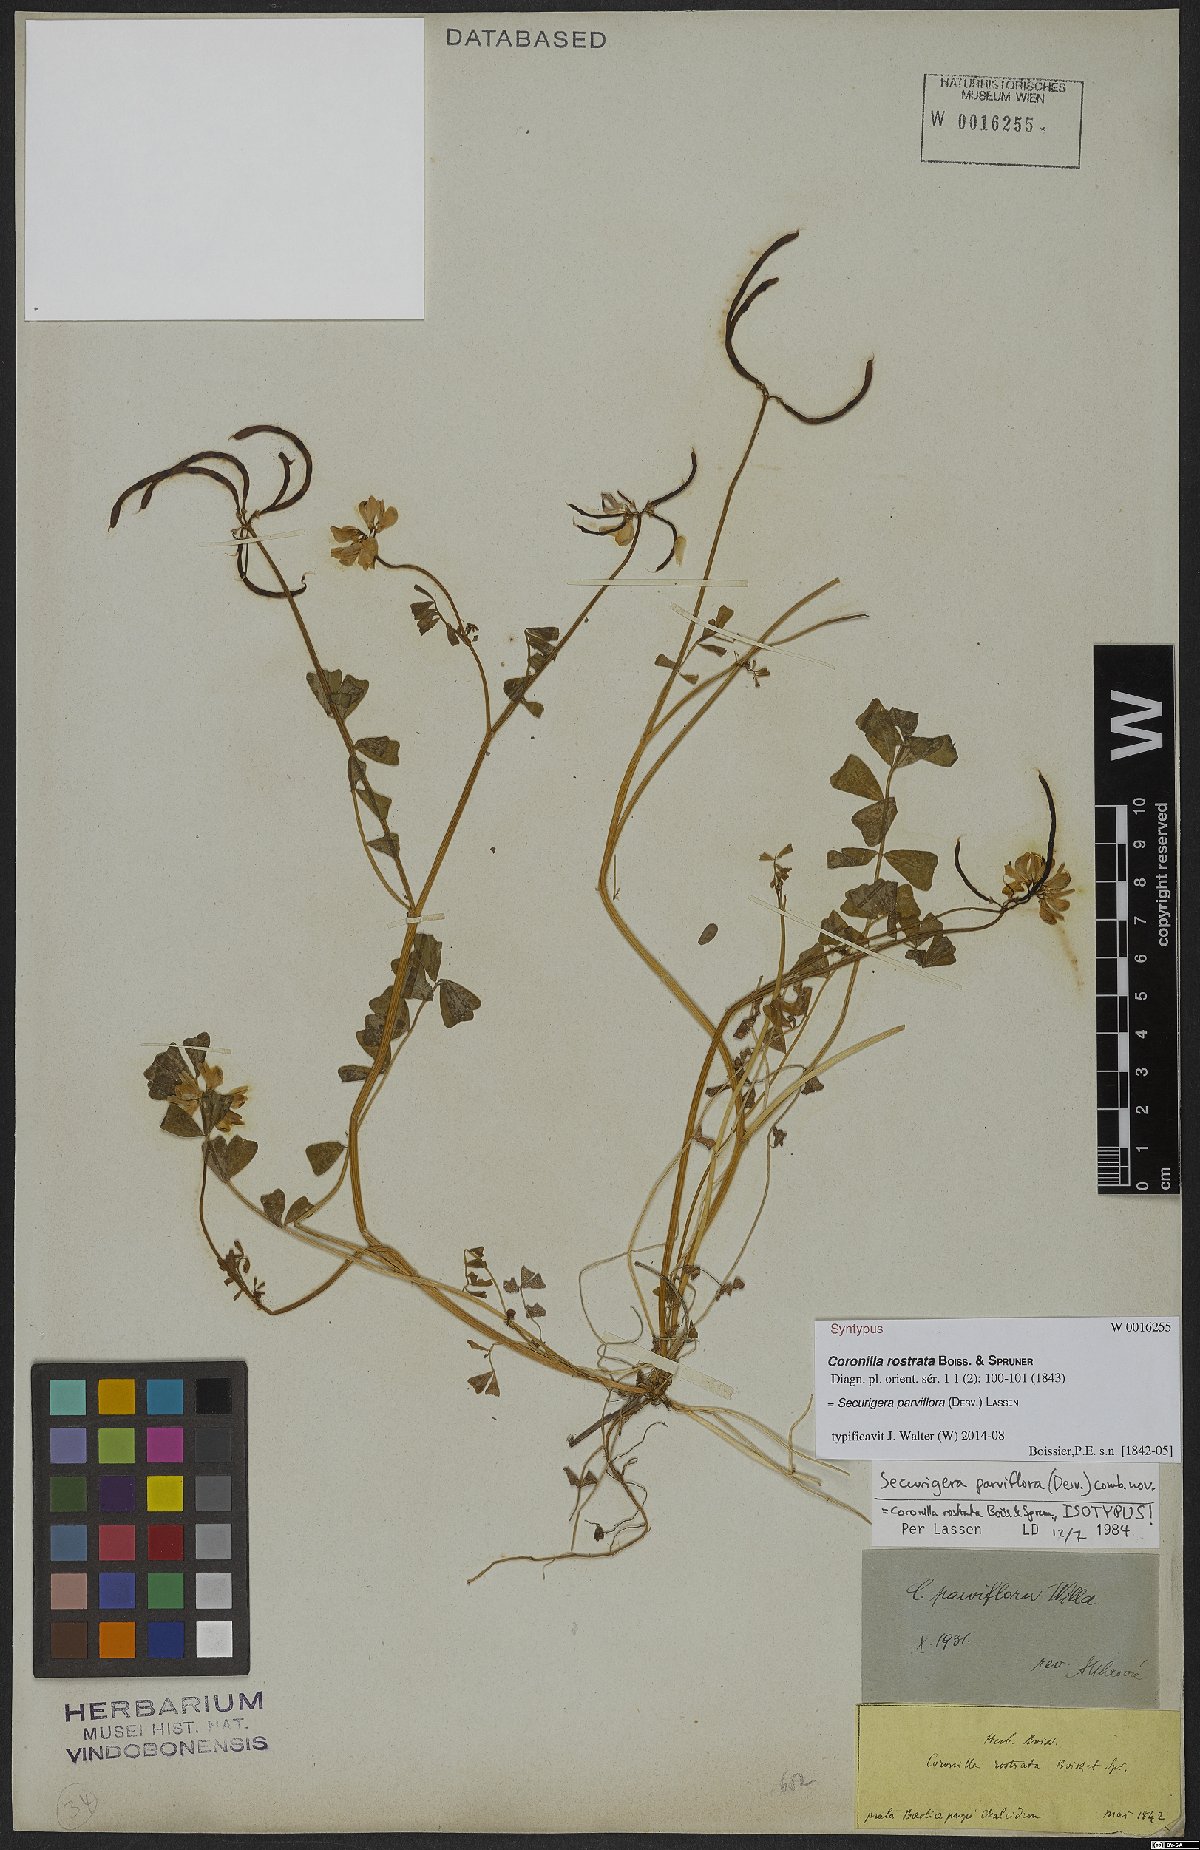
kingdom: Plantae
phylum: Tracheophyta
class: Magnoliopsida
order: Fabales
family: Fabaceae
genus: Coronilla
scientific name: Coronilla rostrata
